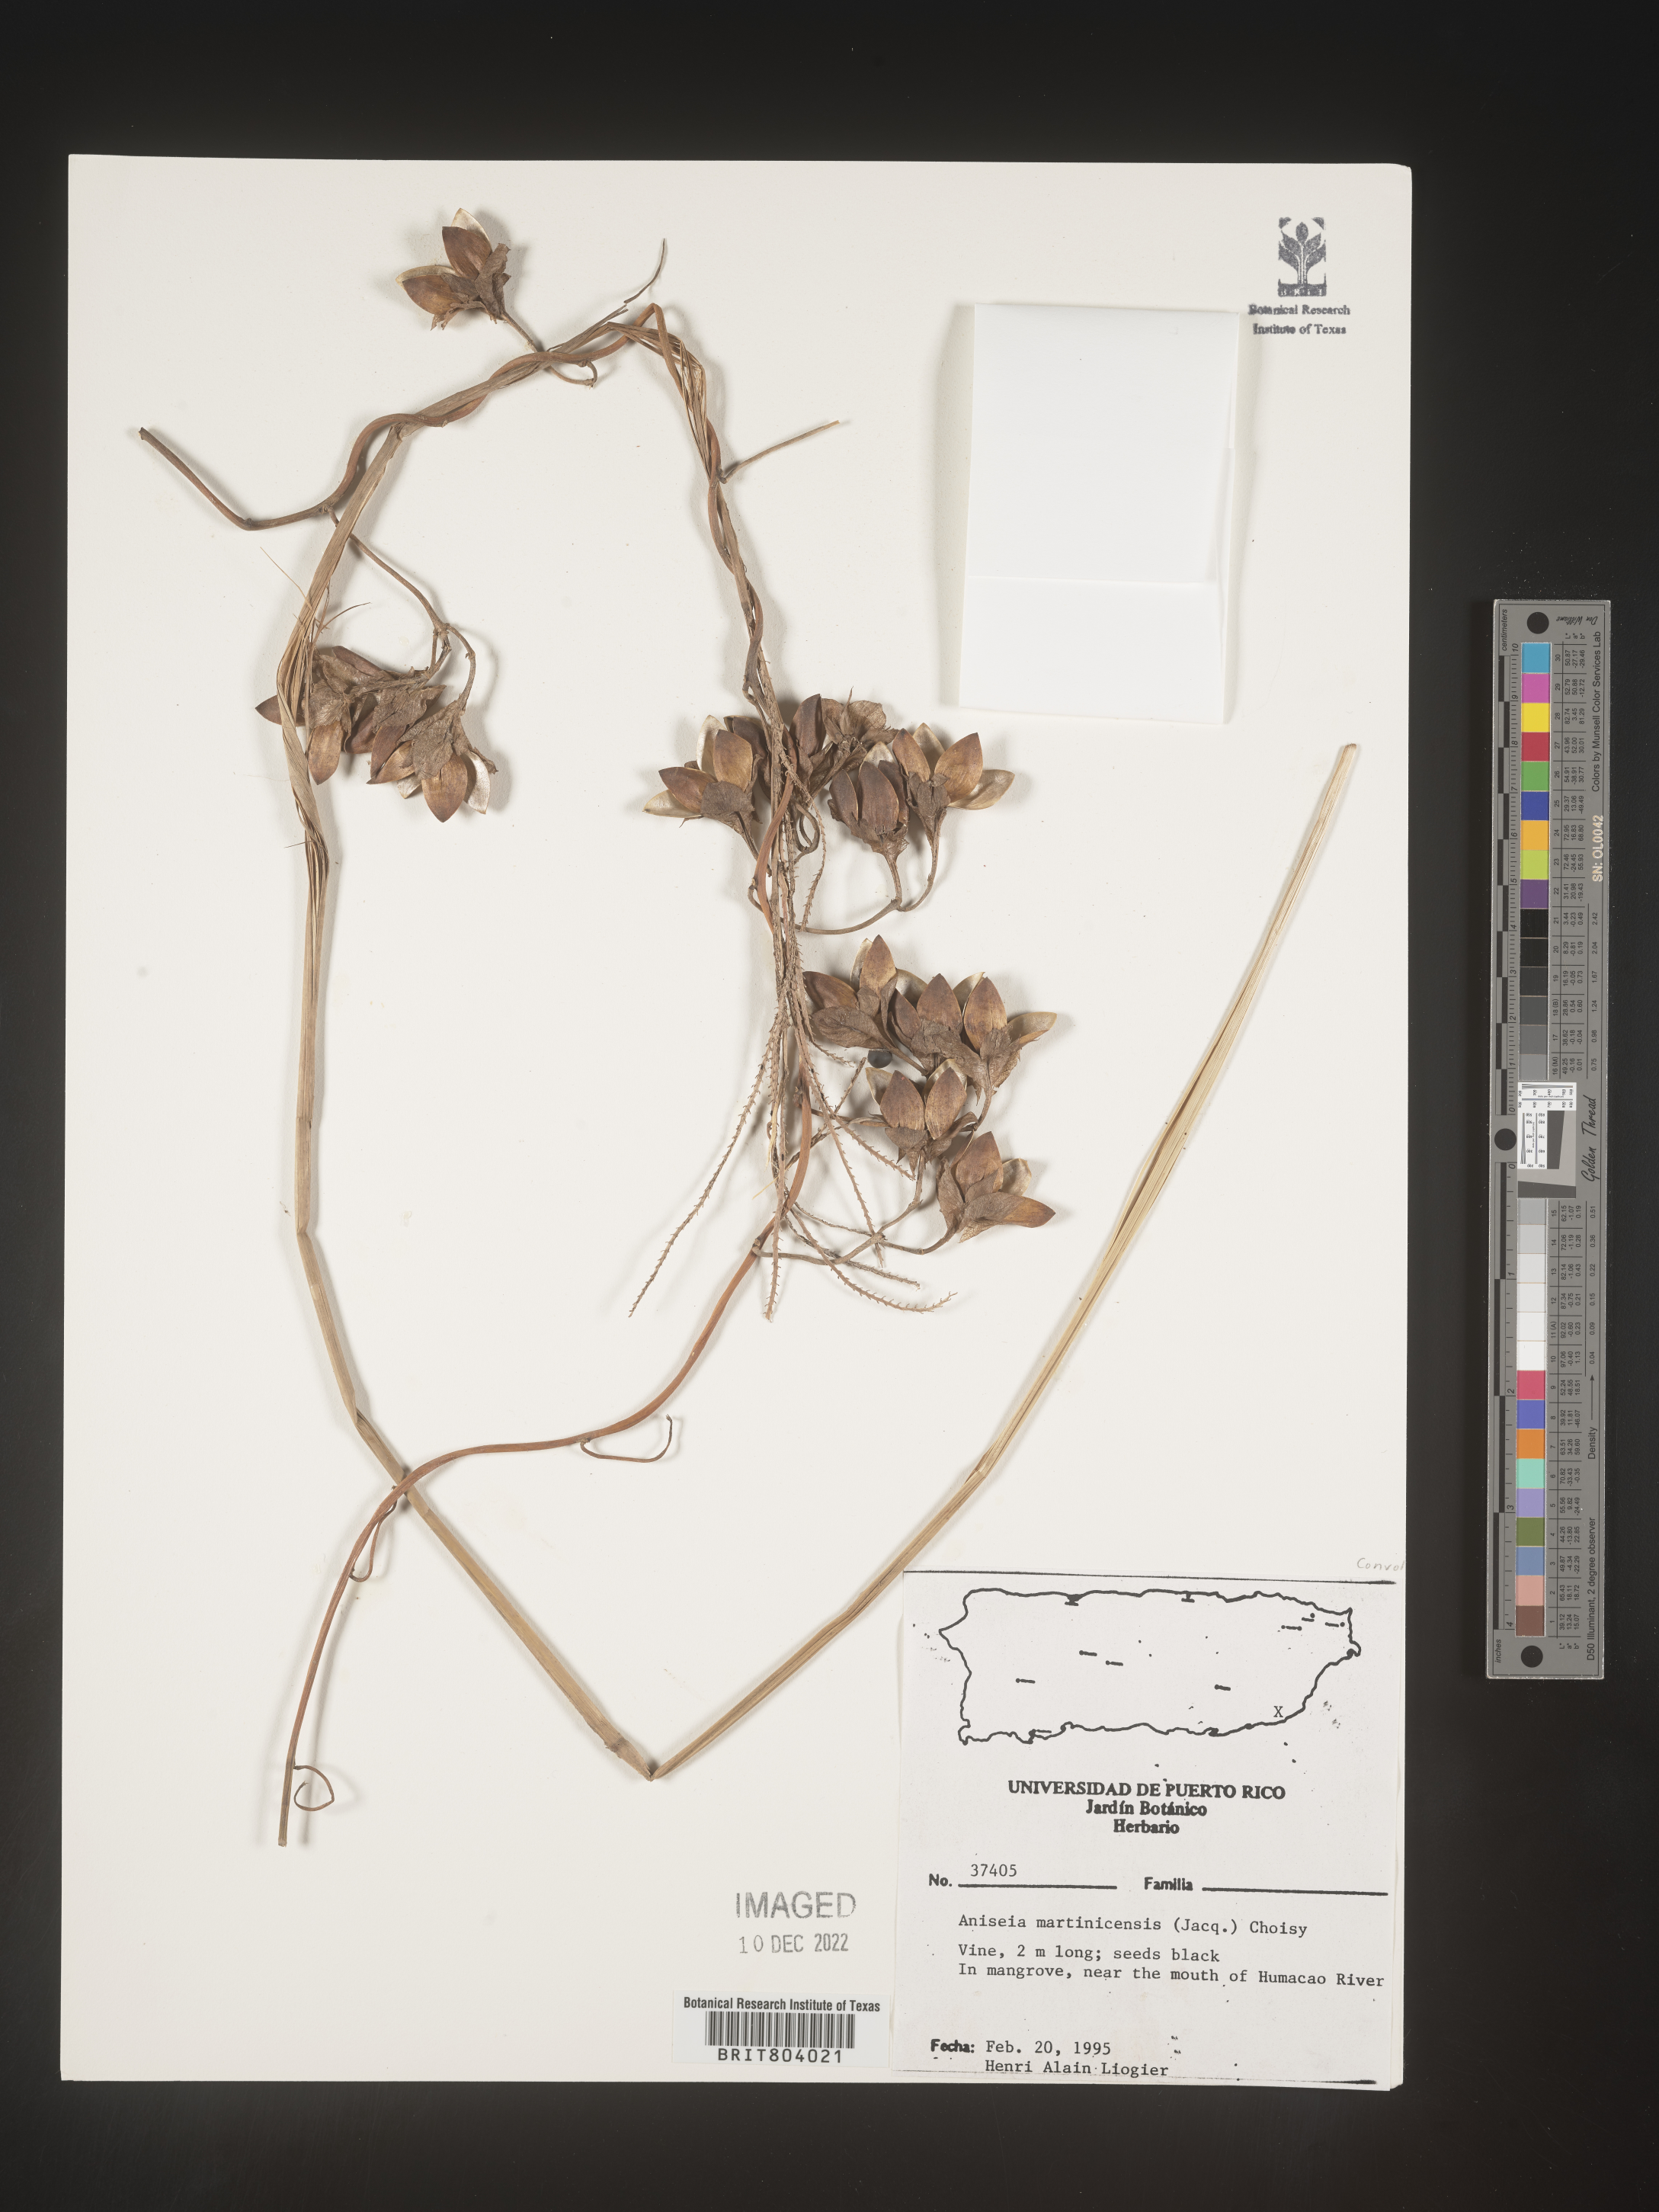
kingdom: Plantae
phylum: Tracheophyta
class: Magnoliopsida
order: Solanales
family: Convolvulaceae
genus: Aniseia
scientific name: Aniseia
